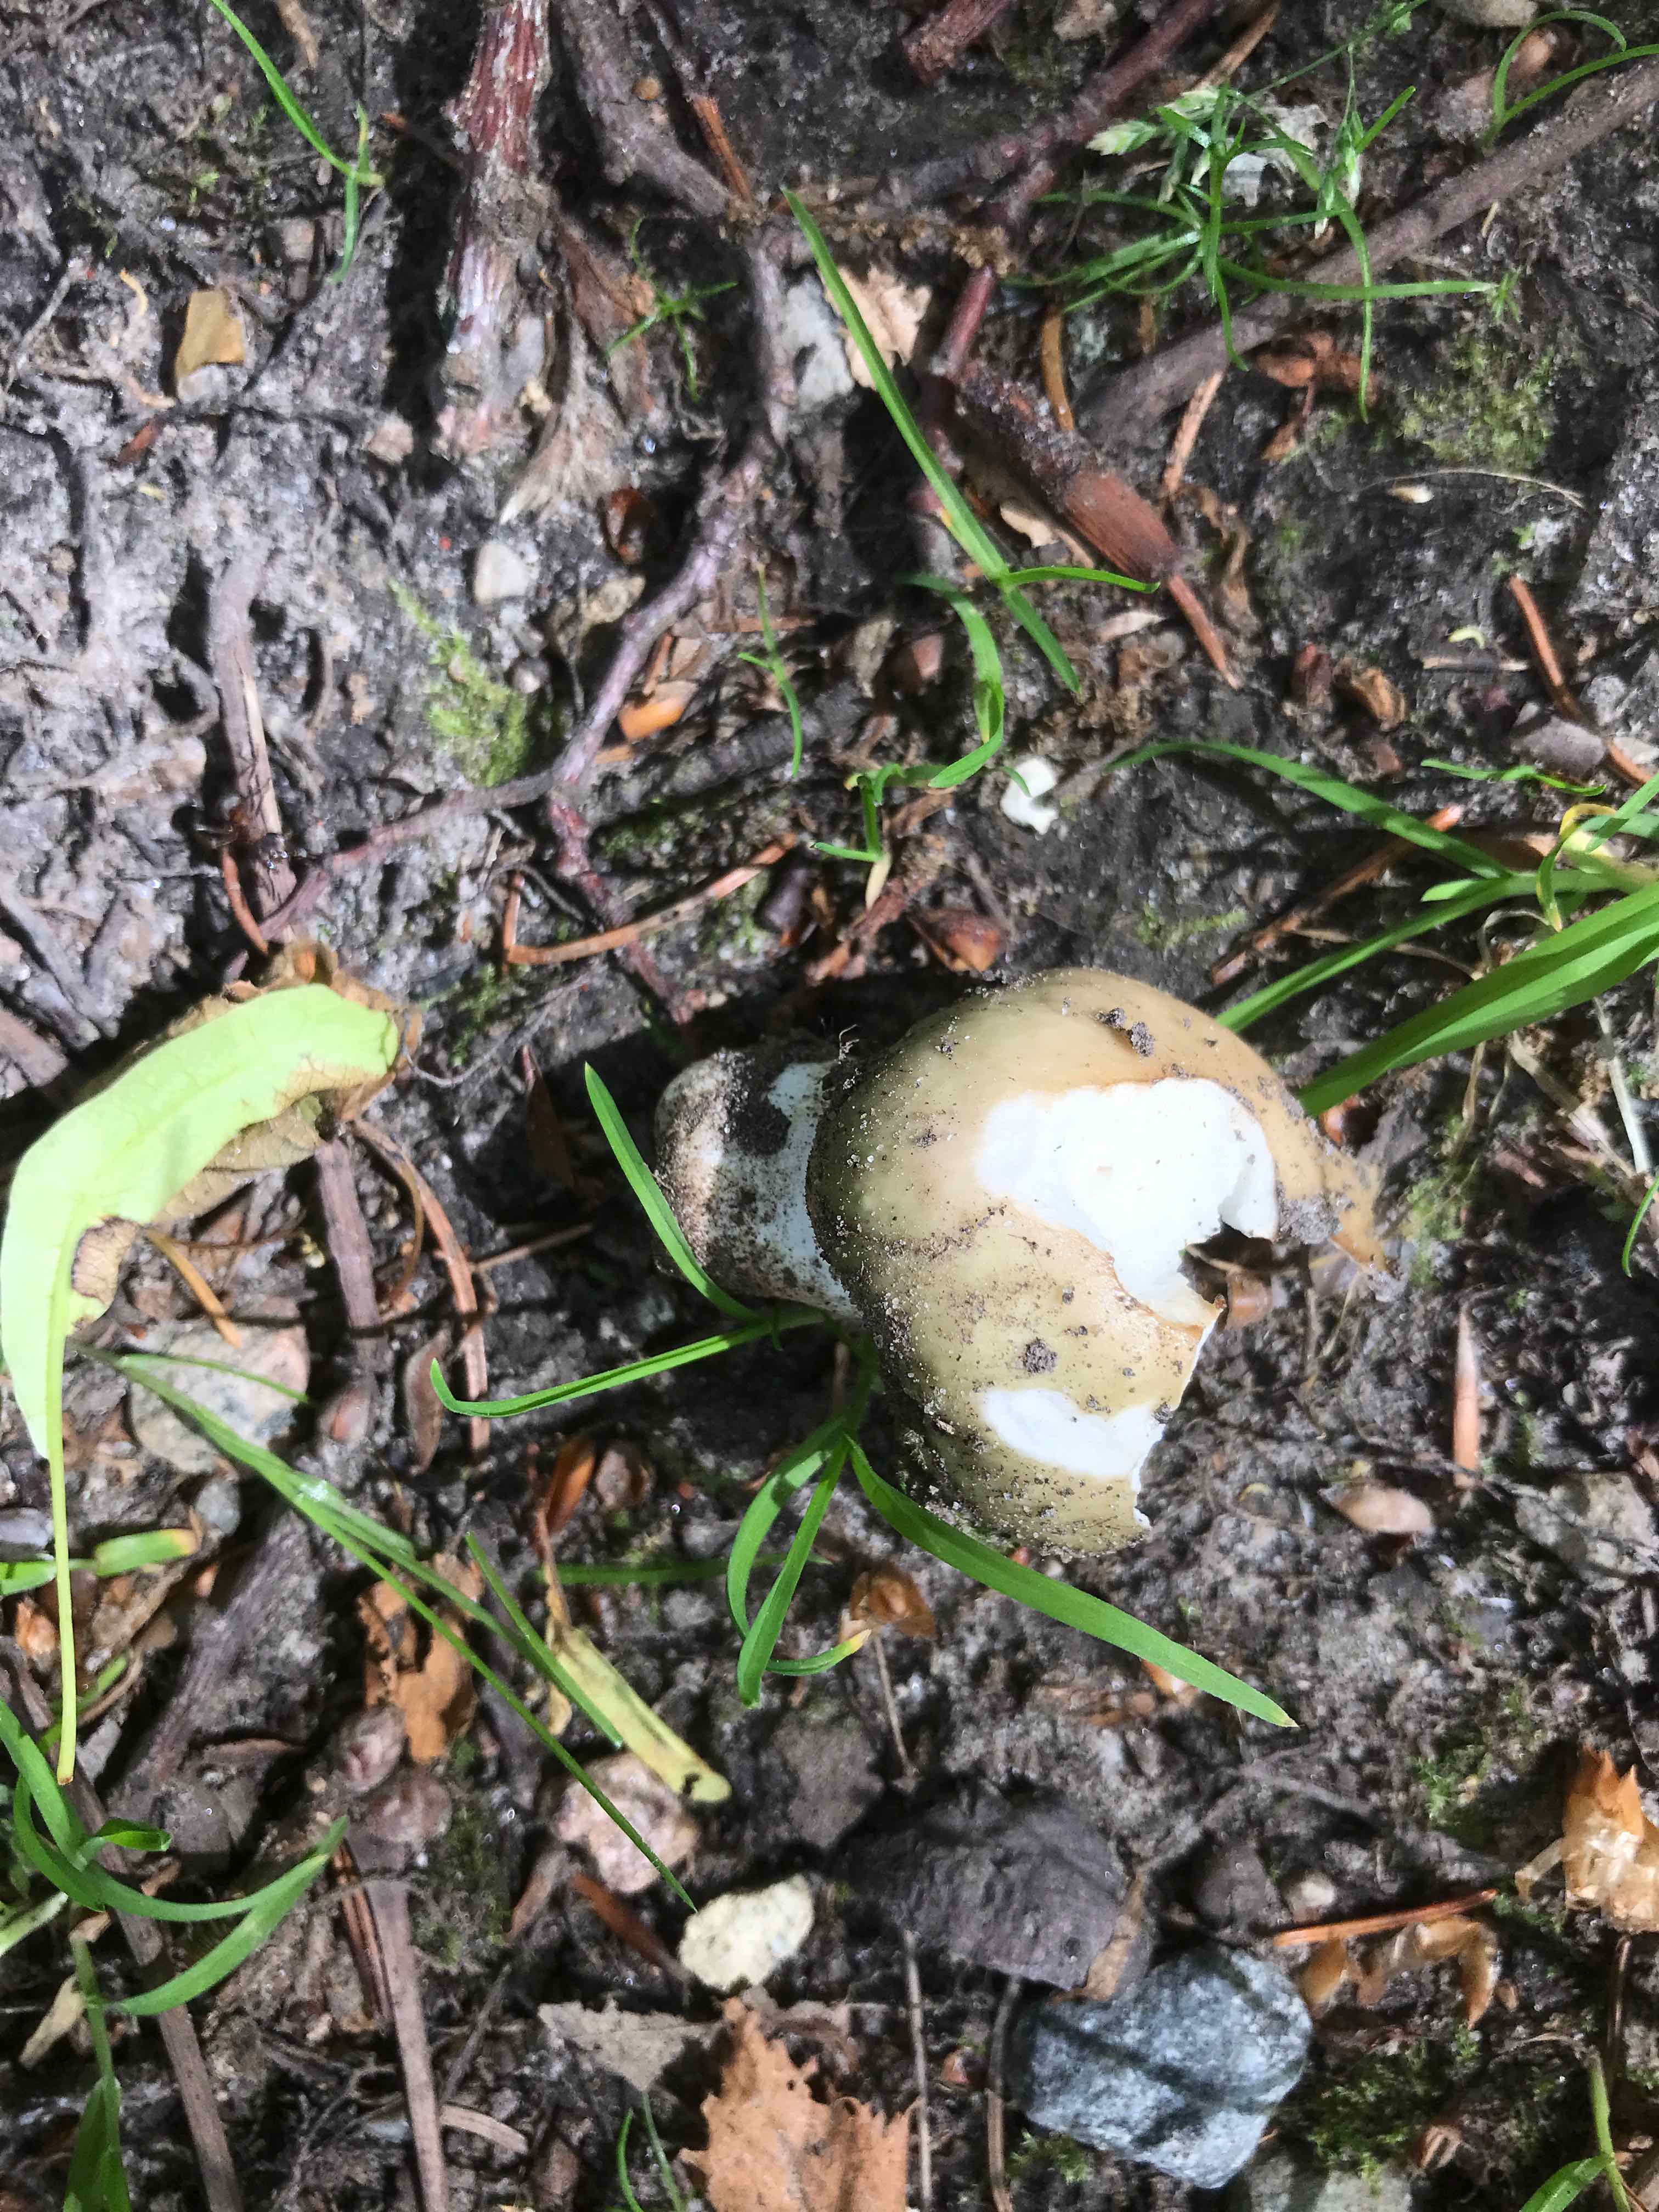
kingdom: Fungi
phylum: Basidiomycota
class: Agaricomycetes
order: Russulales
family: Russulaceae
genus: Russula
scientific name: Russula cyanoxantha
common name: broget skørhat
